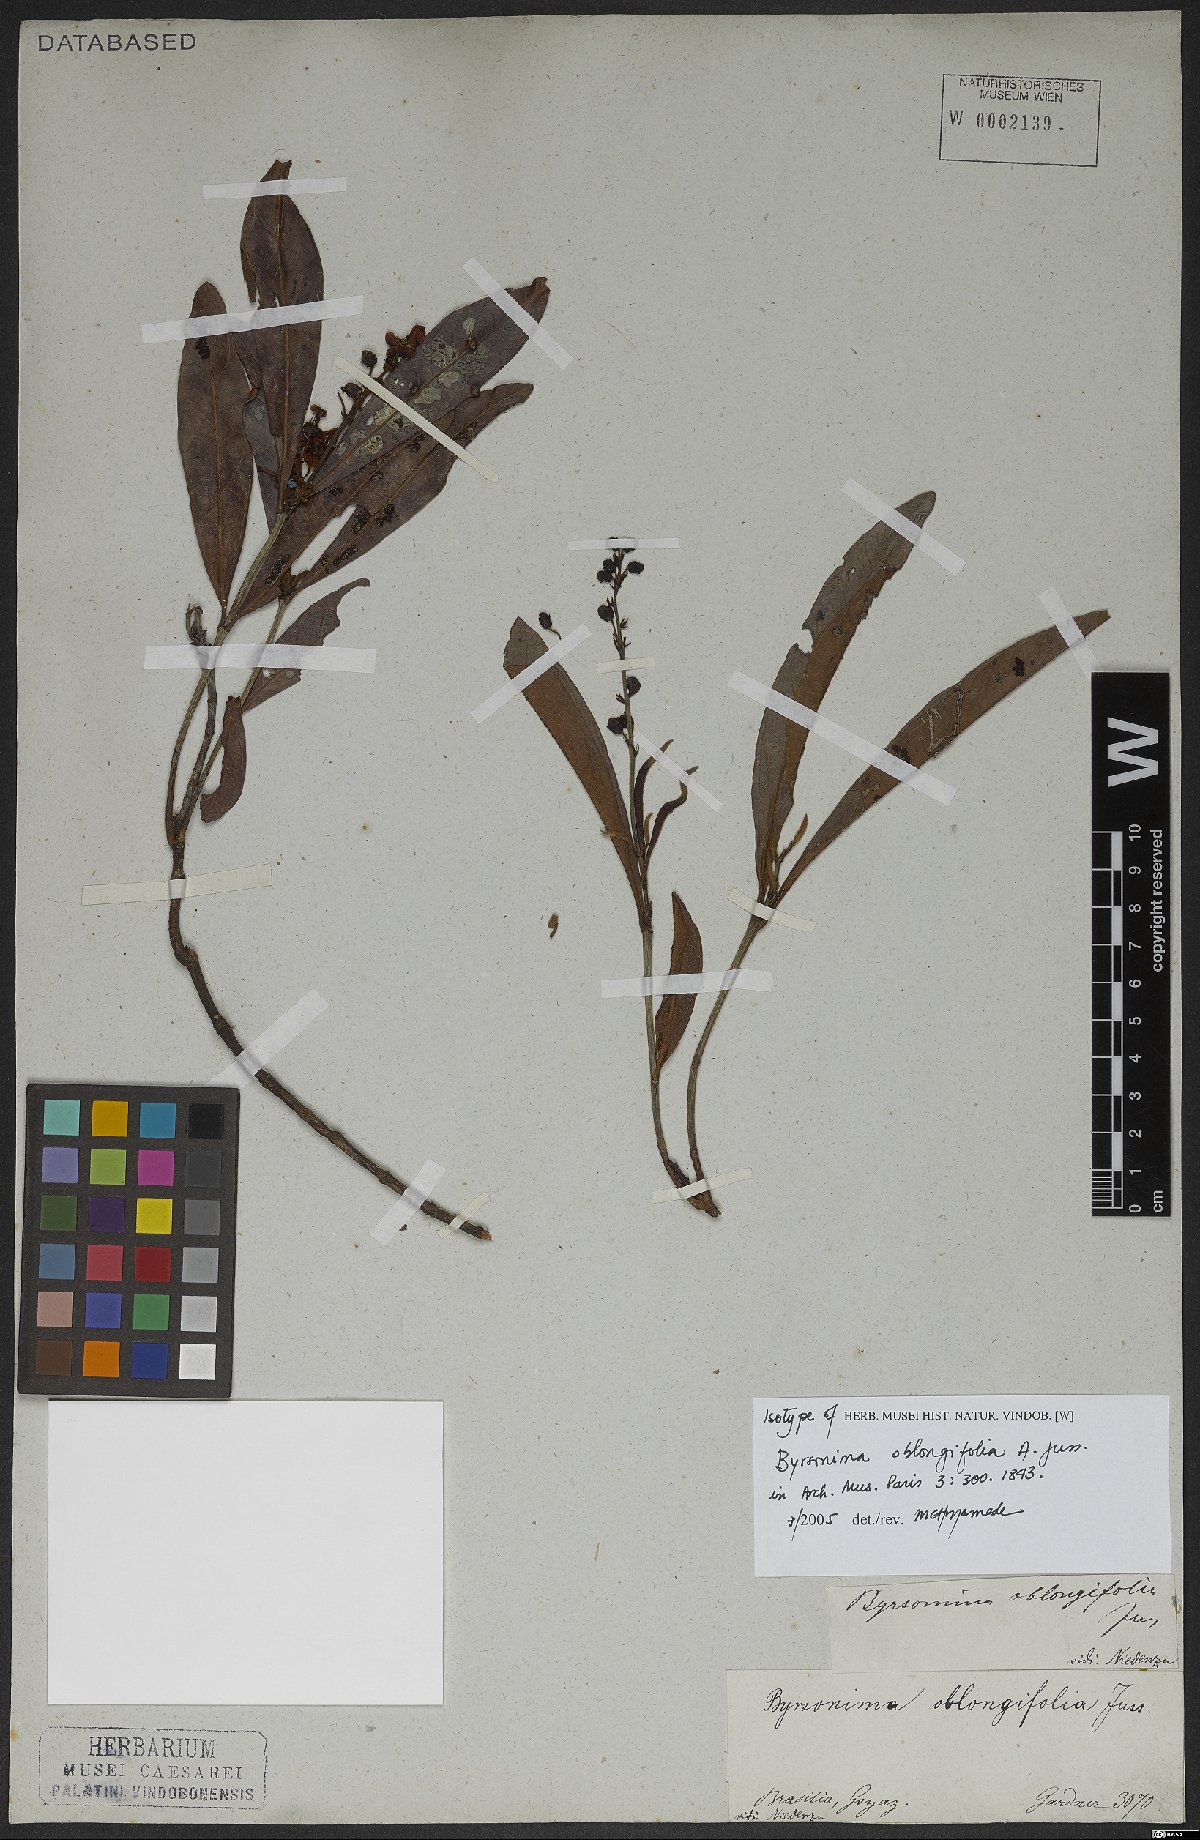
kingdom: Plantae
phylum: Tracheophyta
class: Magnoliopsida
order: Malpighiales
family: Malpighiaceae
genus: Byrsonima
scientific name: Byrsonima oblongifolia
